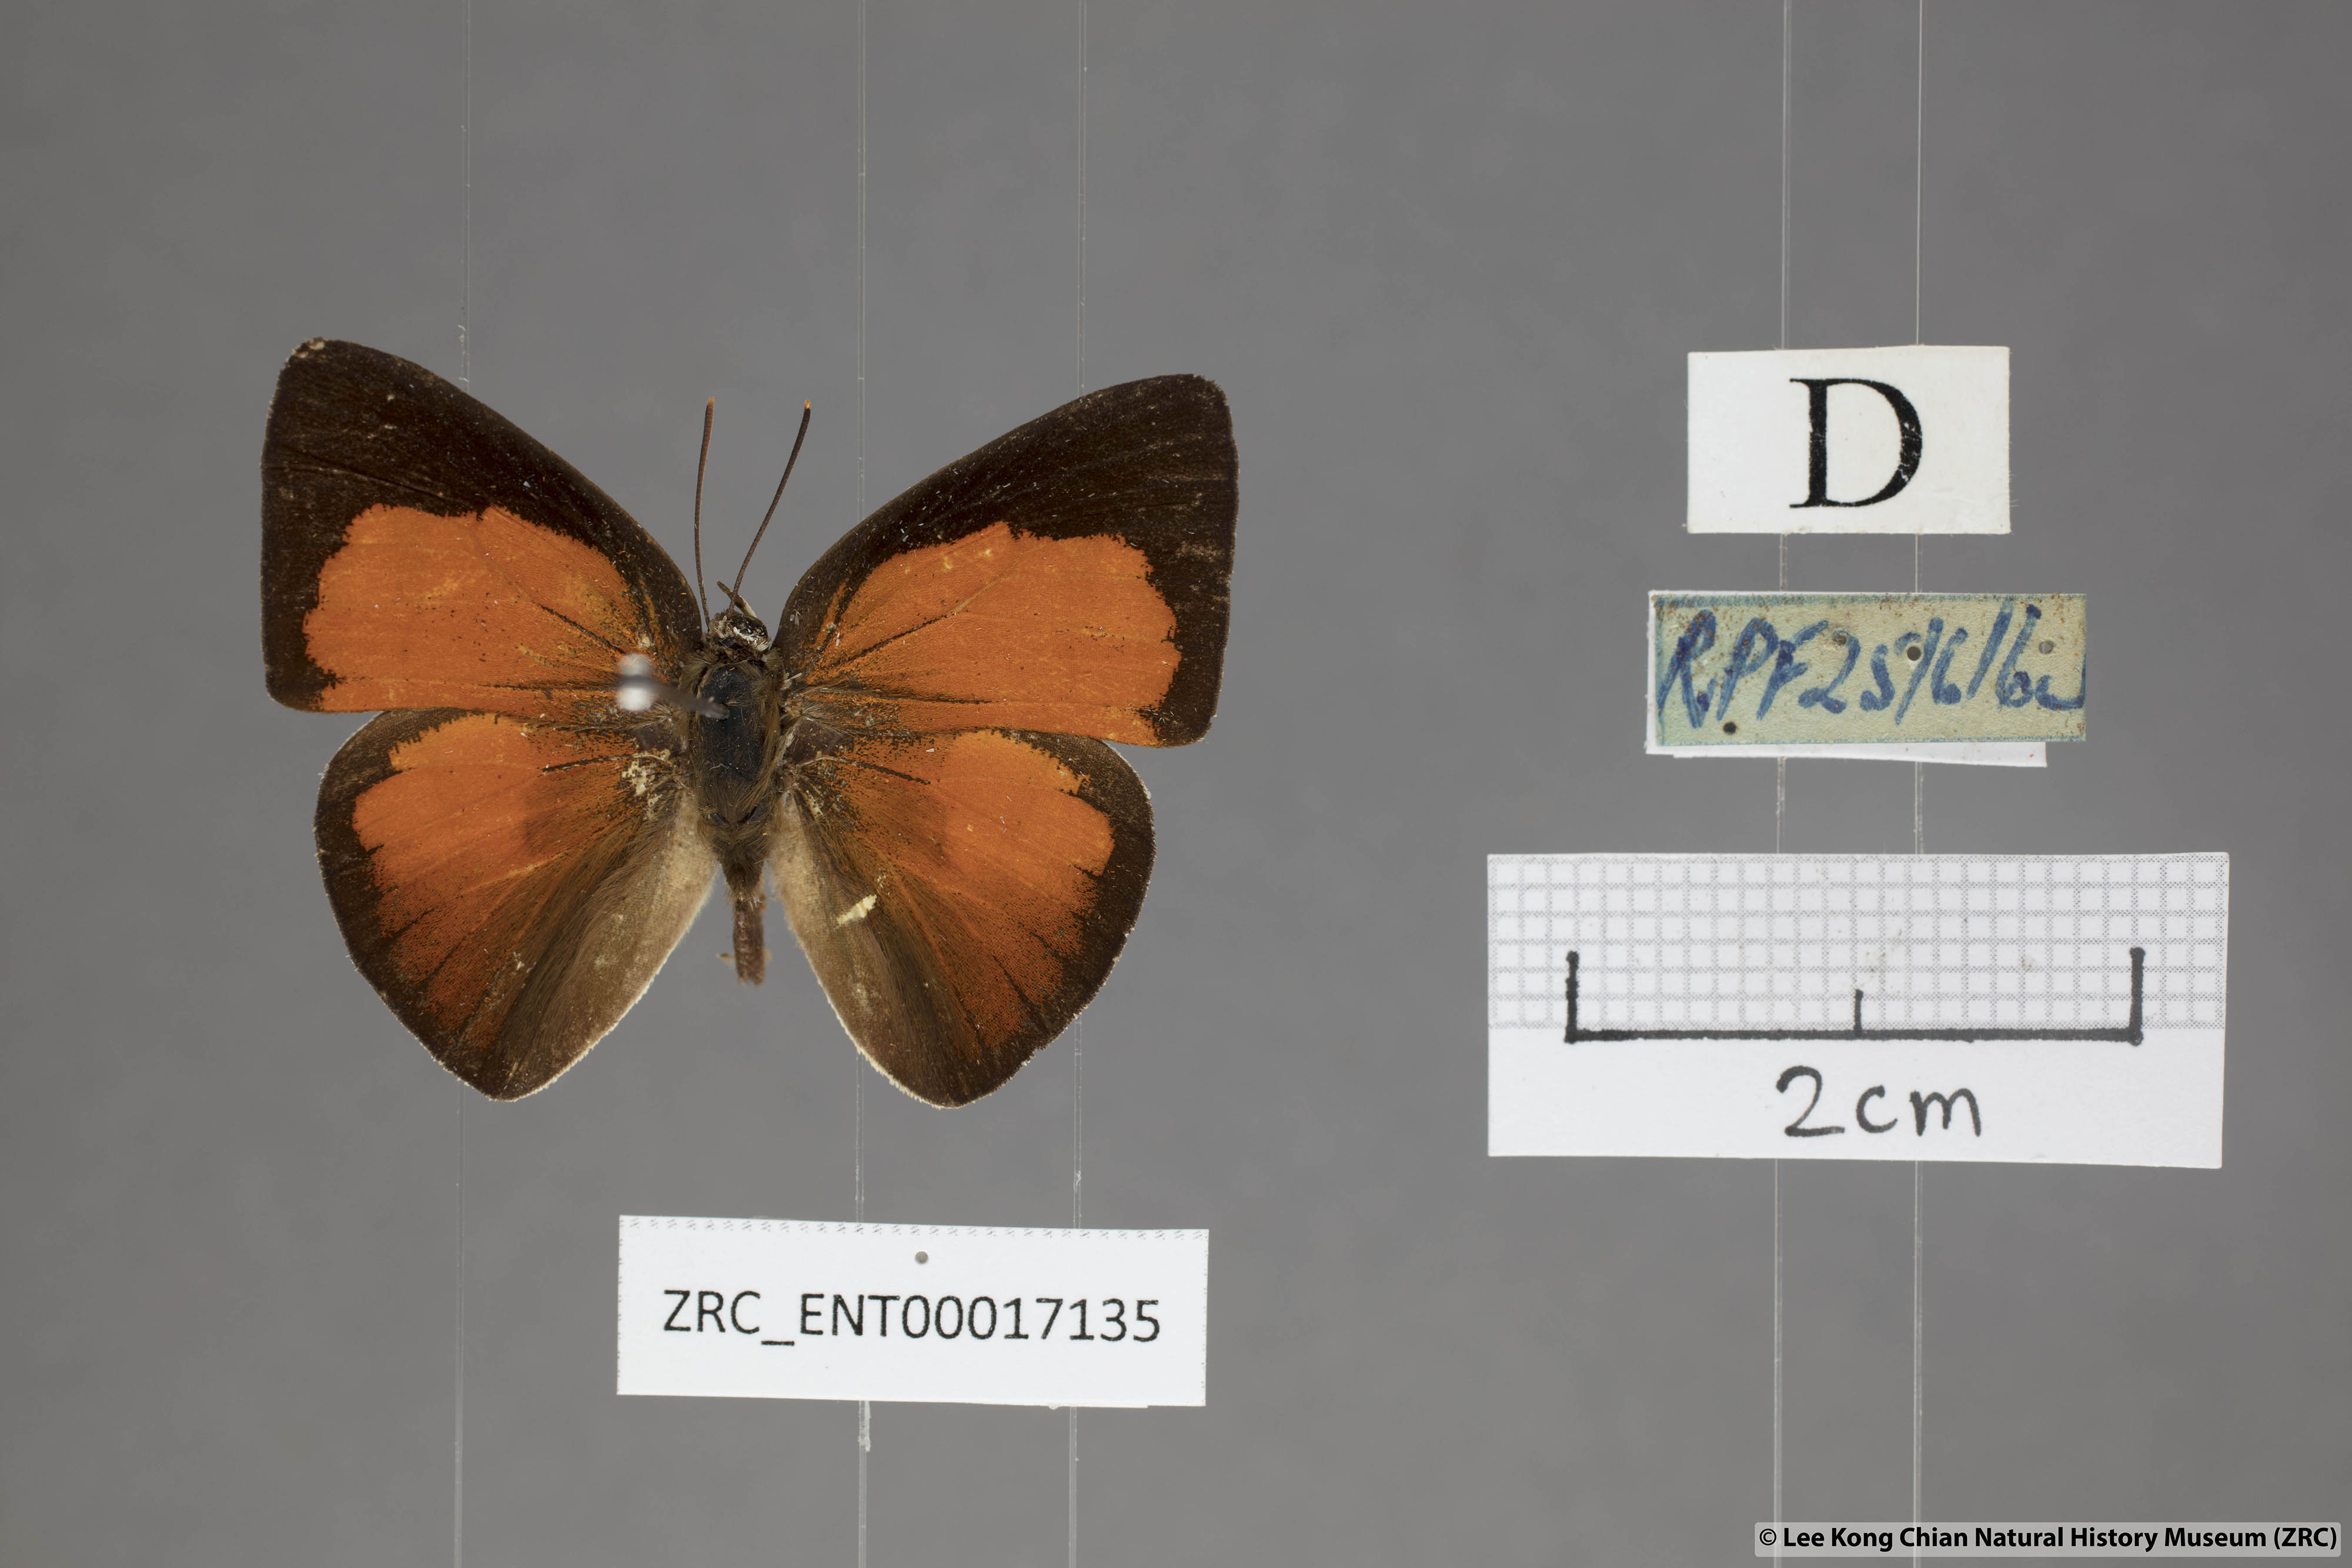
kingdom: Animalia
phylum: Arthropoda
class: Insecta
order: Lepidoptera
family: Lycaenidae
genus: Curetis
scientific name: Curetis insularis
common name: Narrow-banded sunbeam
